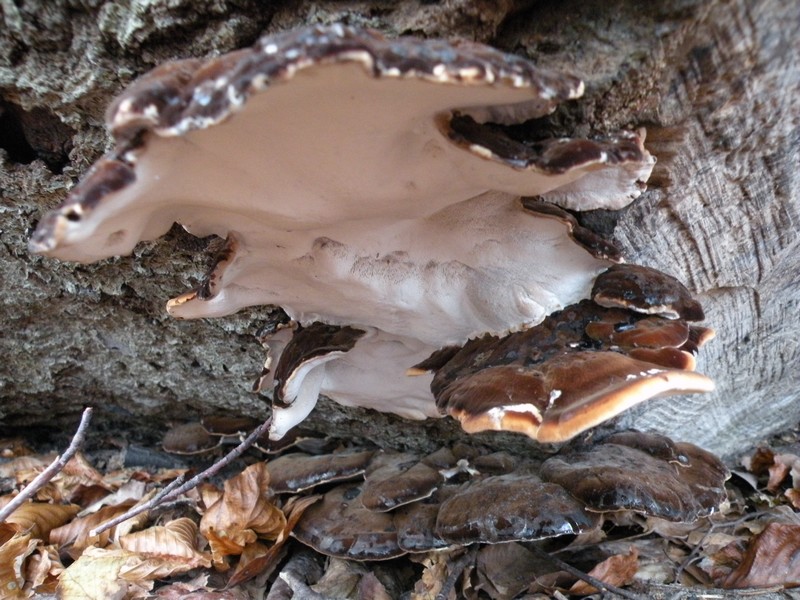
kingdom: Fungi
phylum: Basidiomycota
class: Agaricomycetes
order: Polyporales
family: Ischnodermataceae
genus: Ischnoderma
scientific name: Ischnoderma resinosum
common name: løv-tjæreporesvamp
